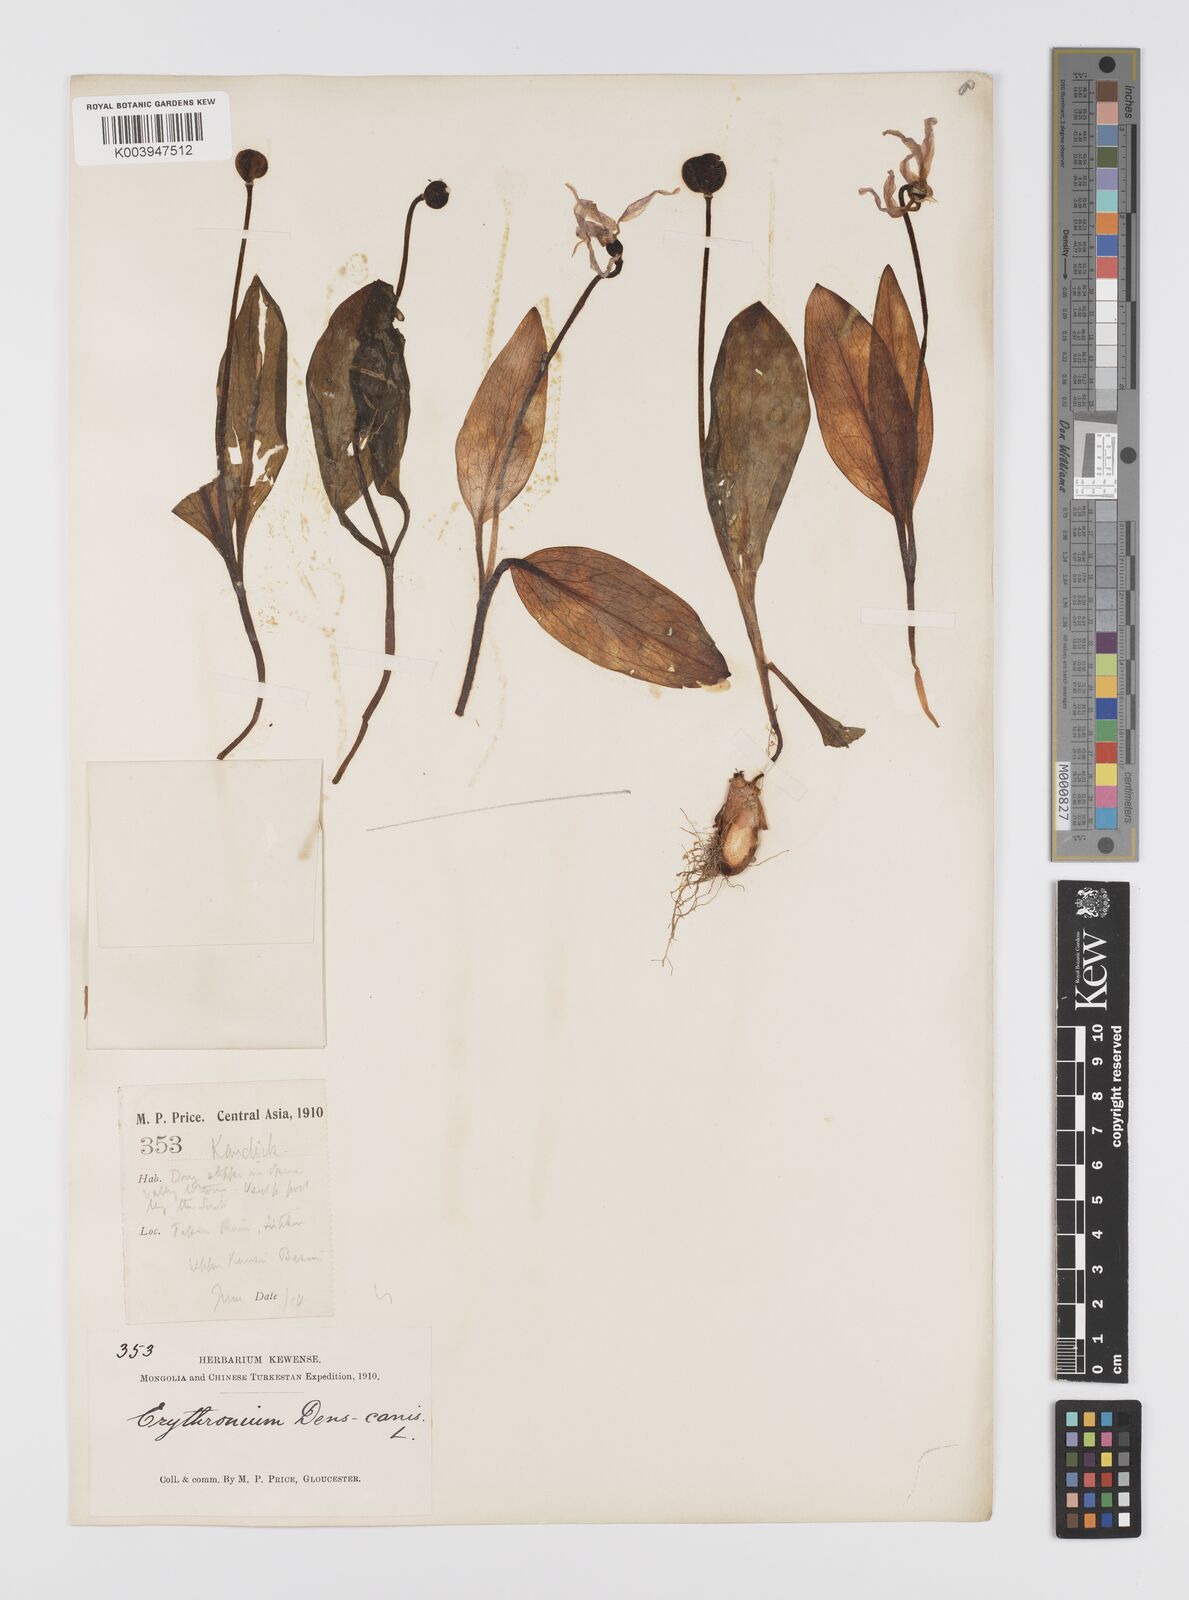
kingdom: Plantae
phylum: Tracheophyta
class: Liliopsida
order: Liliales
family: Liliaceae
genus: Erythronium
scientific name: Erythronium dens-canis
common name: Dog's-tooth-violet
